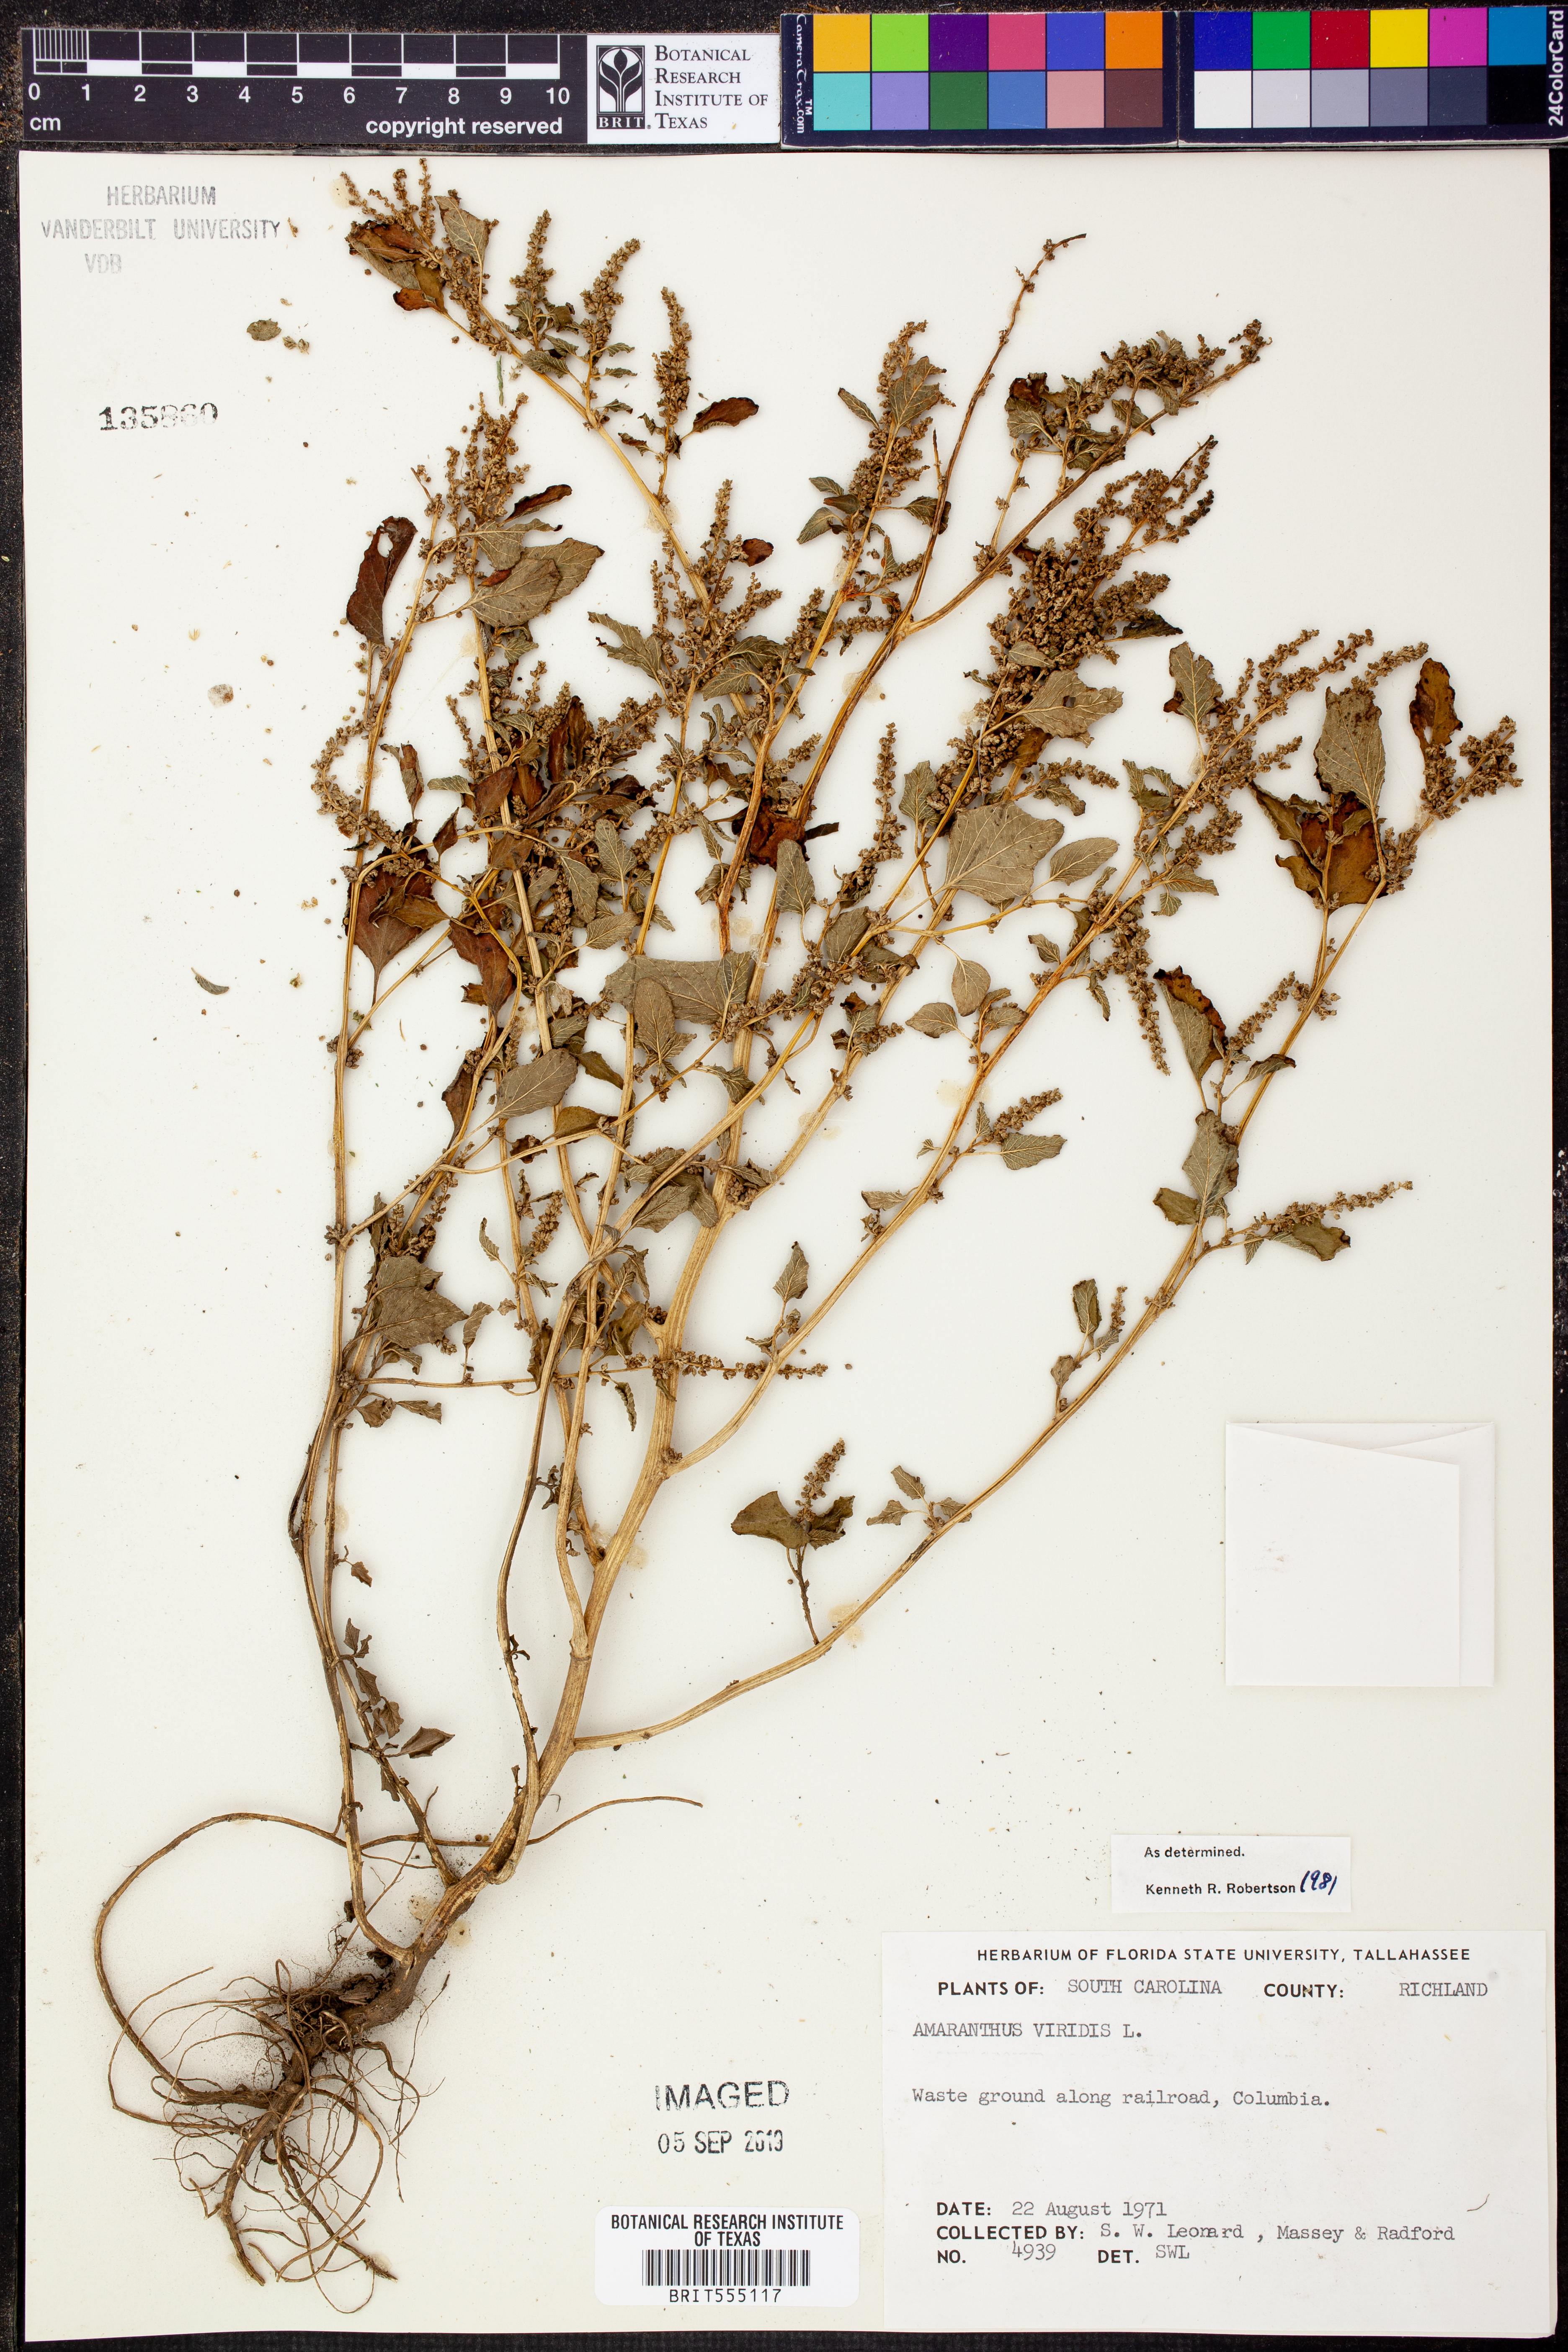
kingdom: Plantae
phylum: Tracheophyta
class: Magnoliopsida
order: Caryophyllales
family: Amaranthaceae
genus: Amaranthus
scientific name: Amaranthus viridis
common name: Slender amaranth
